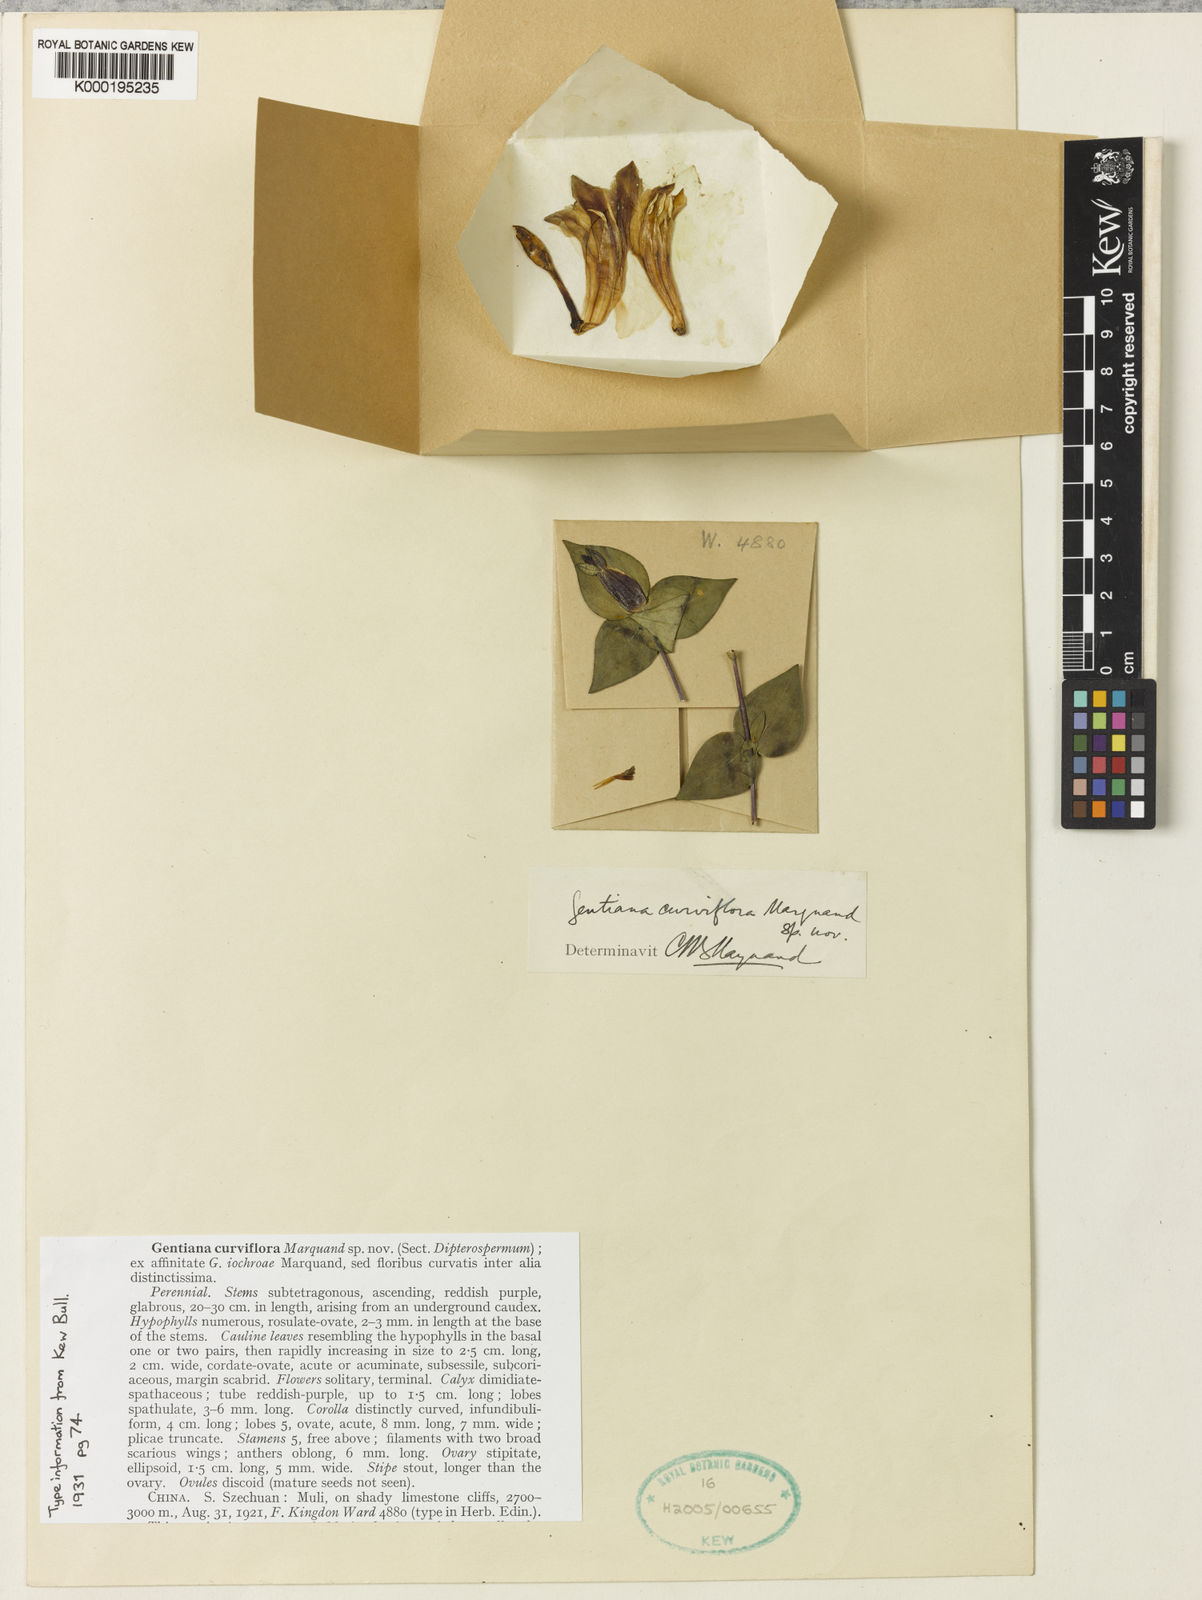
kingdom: Plantae
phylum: Tracheophyta
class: Magnoliopsida
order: Gentianales
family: Gentianaceae
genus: Crawfurdia
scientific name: Crawfurdia
